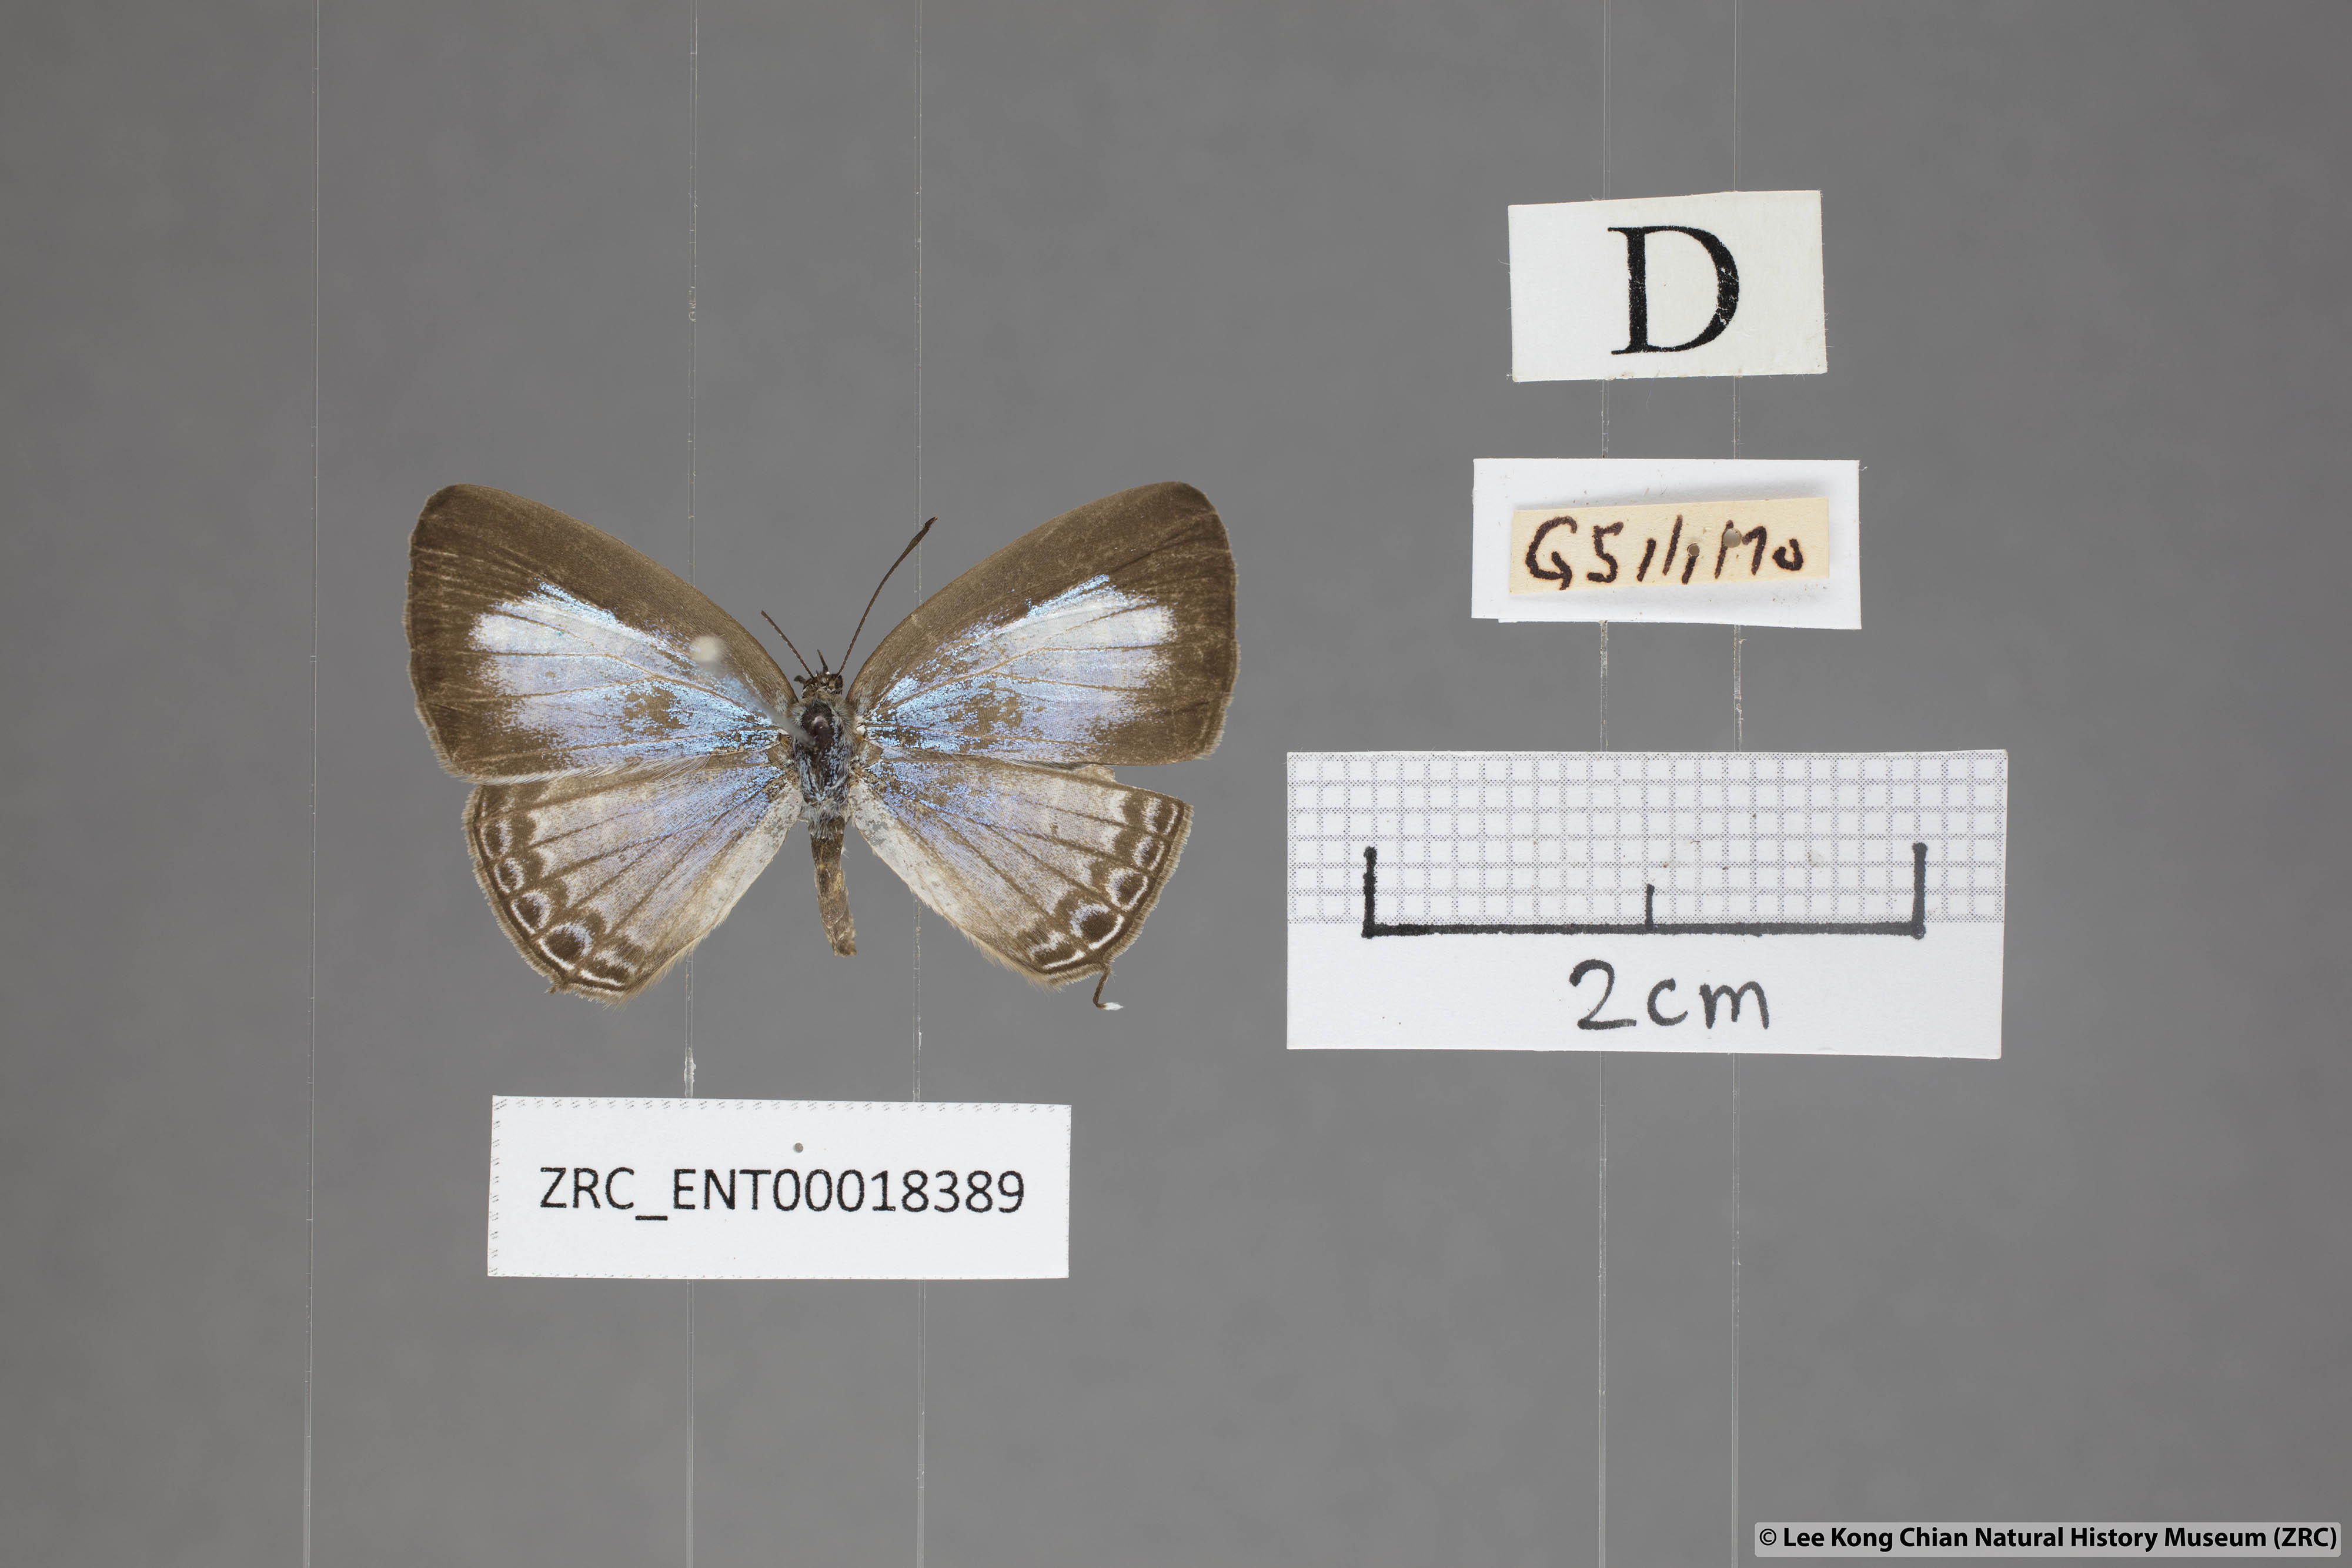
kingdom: Animalia
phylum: Arthropoda
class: Insecta
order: Lepidoptera
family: Lycaenidae
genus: Nacaduba
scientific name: Nacaduba kurava
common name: Transparent 6-line blue
